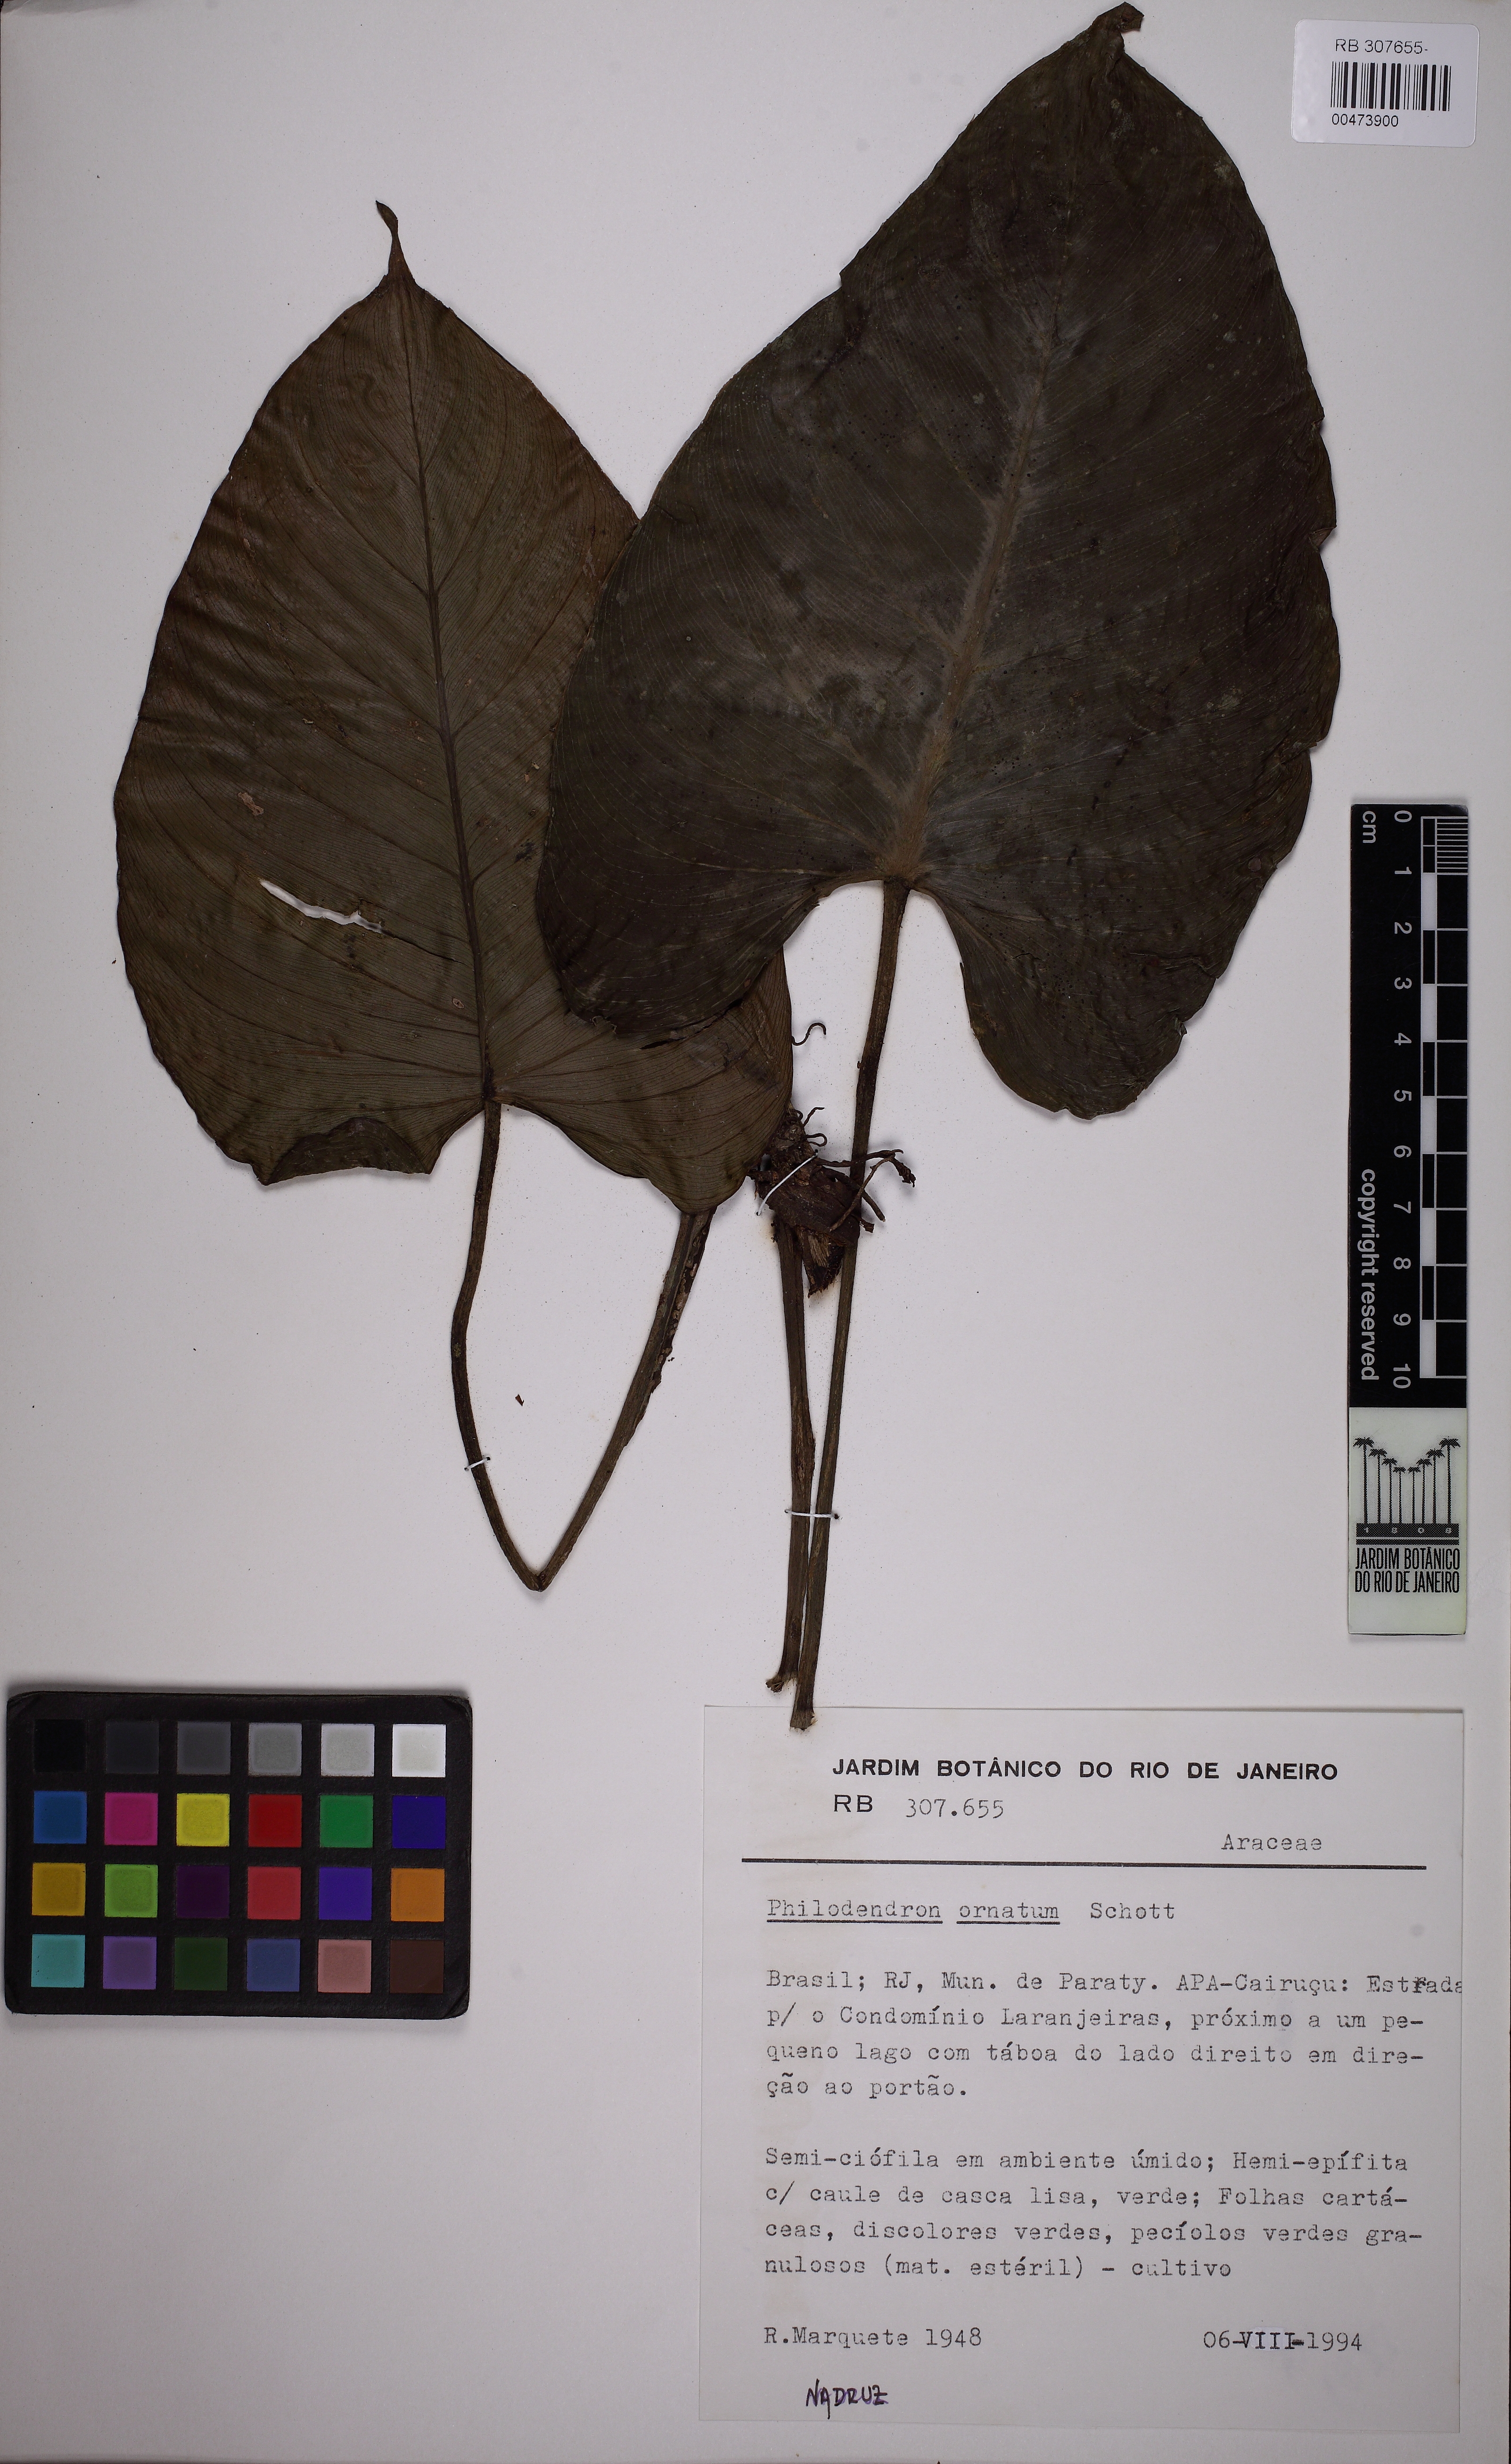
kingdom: Plantae
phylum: Tracheophyta
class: Liliopsida
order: Alismatales
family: Araceae
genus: Philodendron
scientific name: Philodendron ornatum
